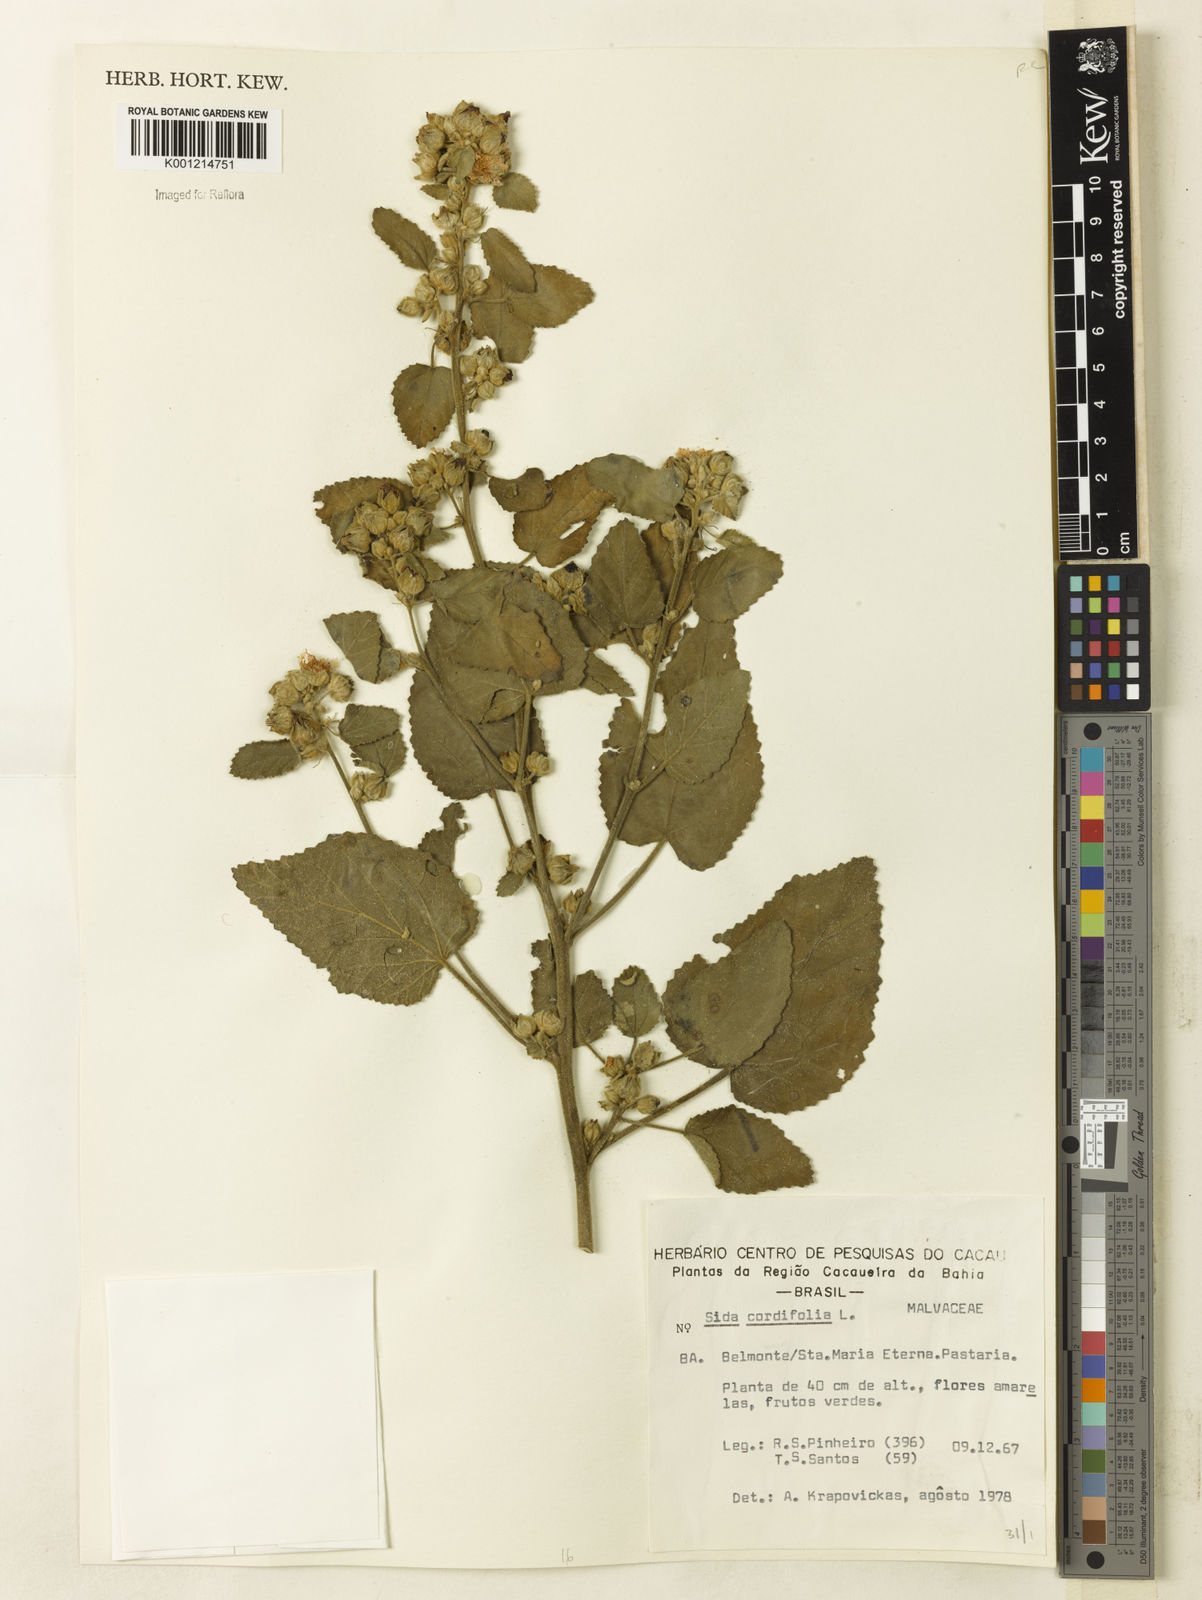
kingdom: Plantae
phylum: Tracheophyta
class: Magnoliopsida
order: Malvales
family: Malvaceae
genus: Sida
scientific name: Sida cordifolia
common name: Ilima
